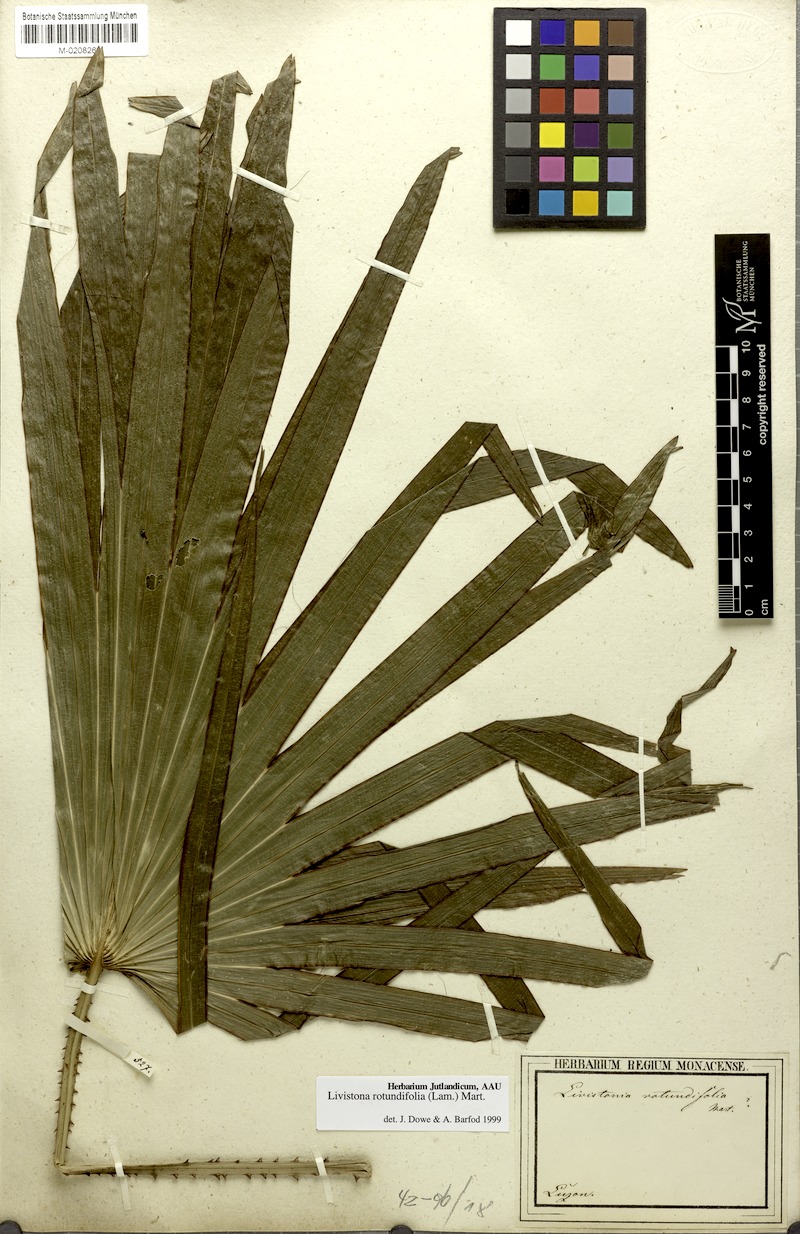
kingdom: Plantae
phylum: Tracheophyta
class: Liliopsida
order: Arecales
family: Arecaceae
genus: Saribus
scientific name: Saribus rotundifolius
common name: Palm
